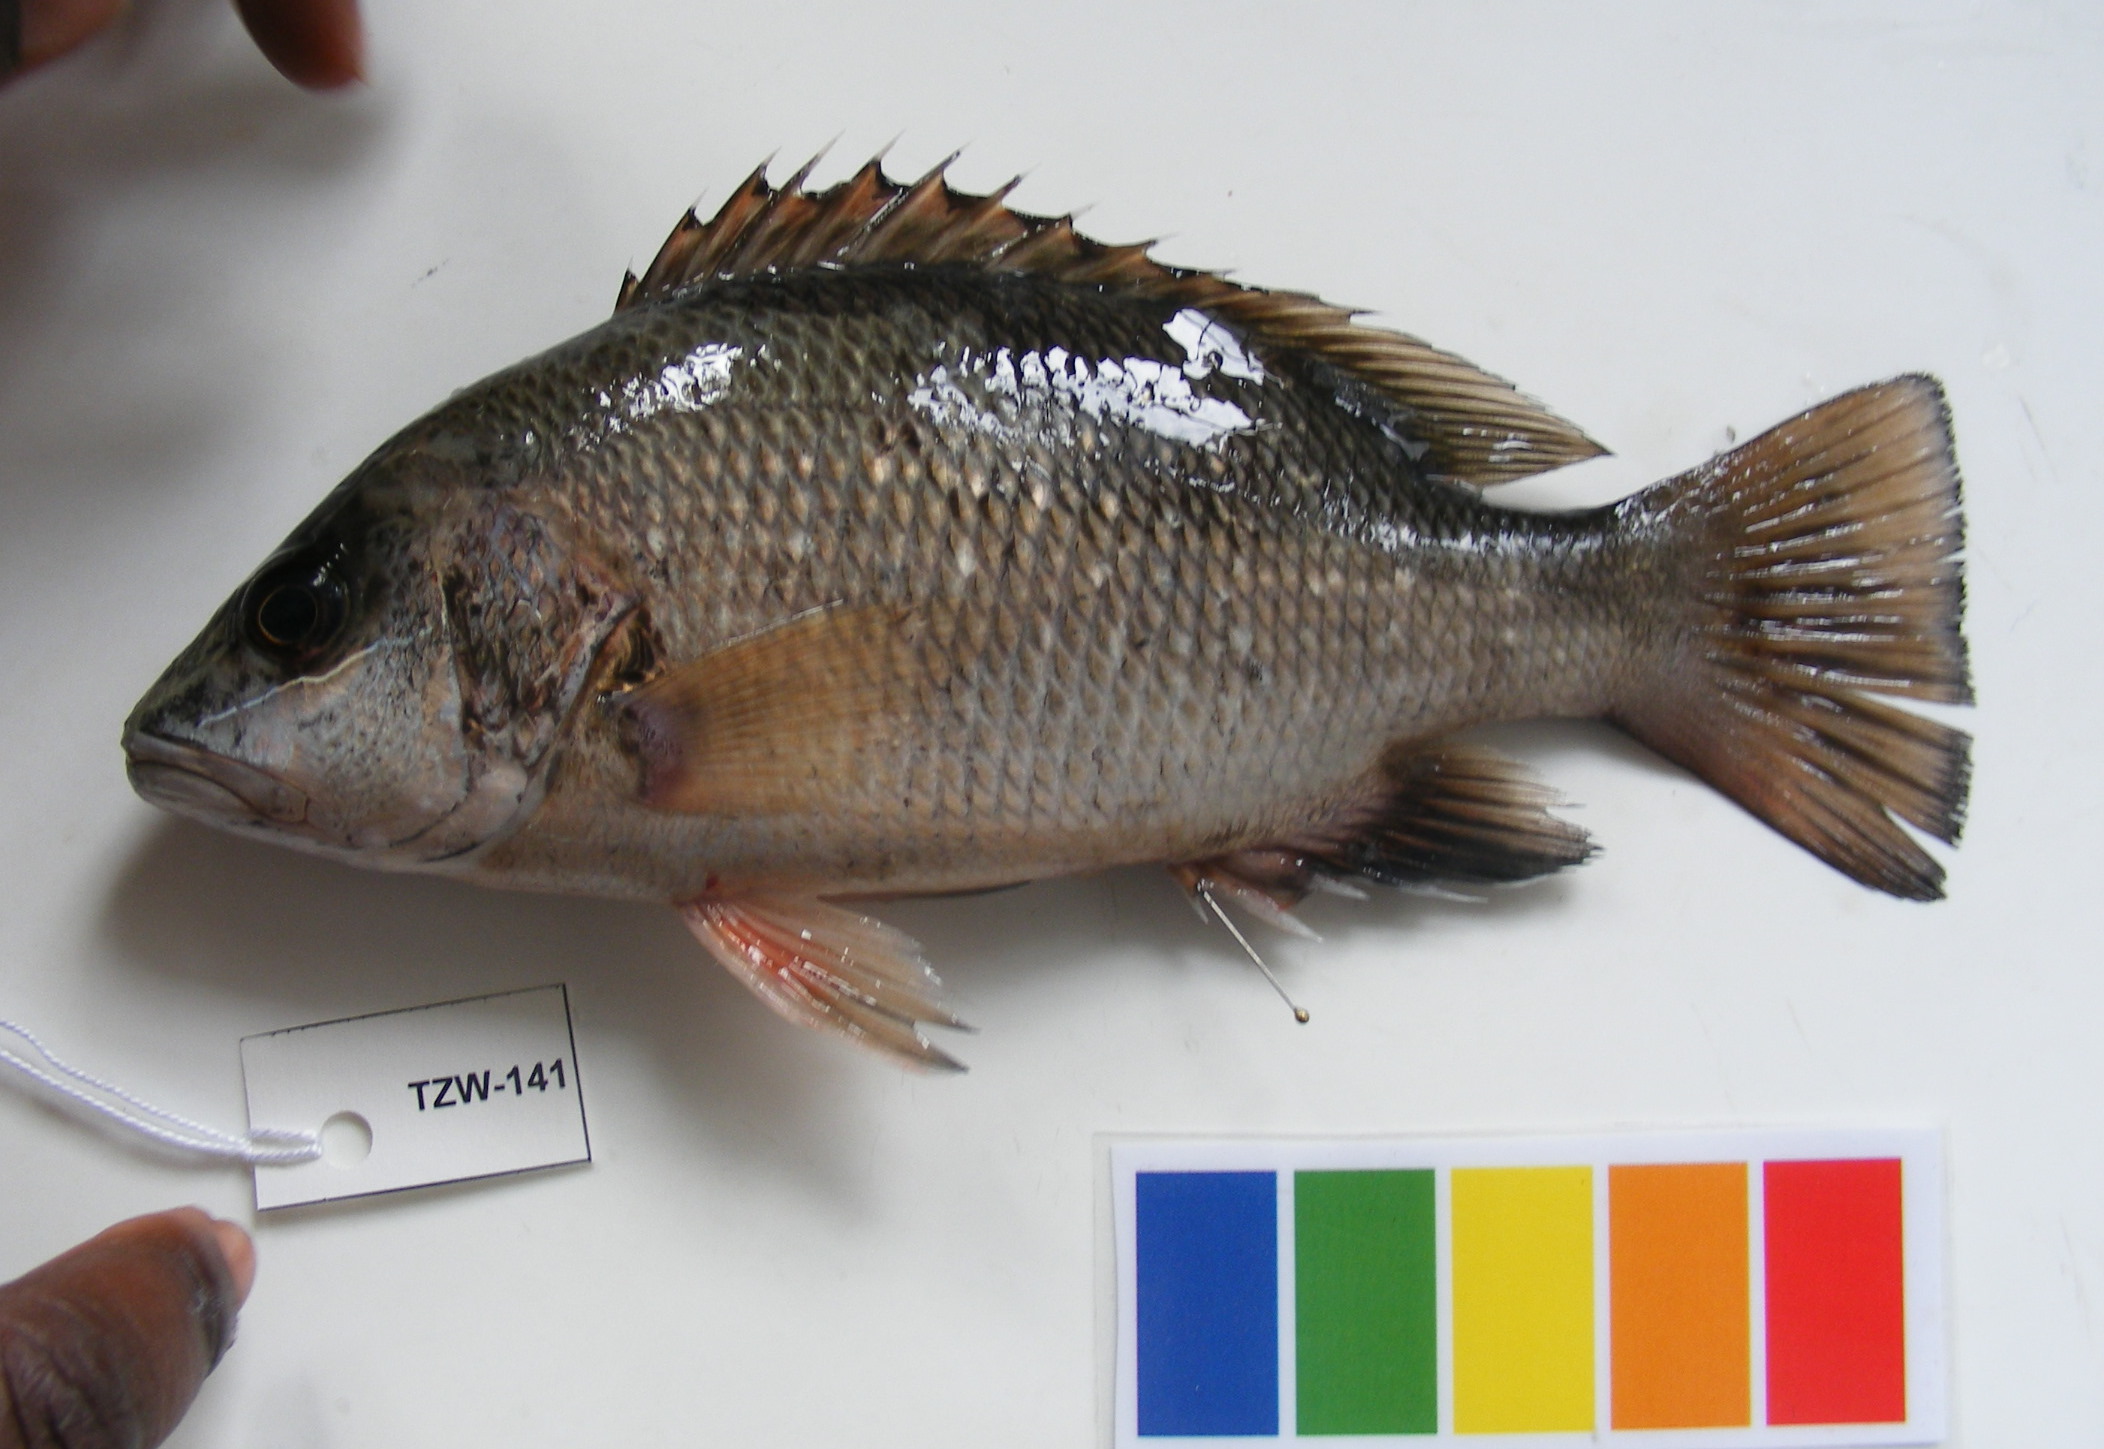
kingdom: Animalia
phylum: Chordata
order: Perciformes
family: Lutjanidae
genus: Lutjanus
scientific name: Lutjanus argentimaculatus
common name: Mangrove red snapper
